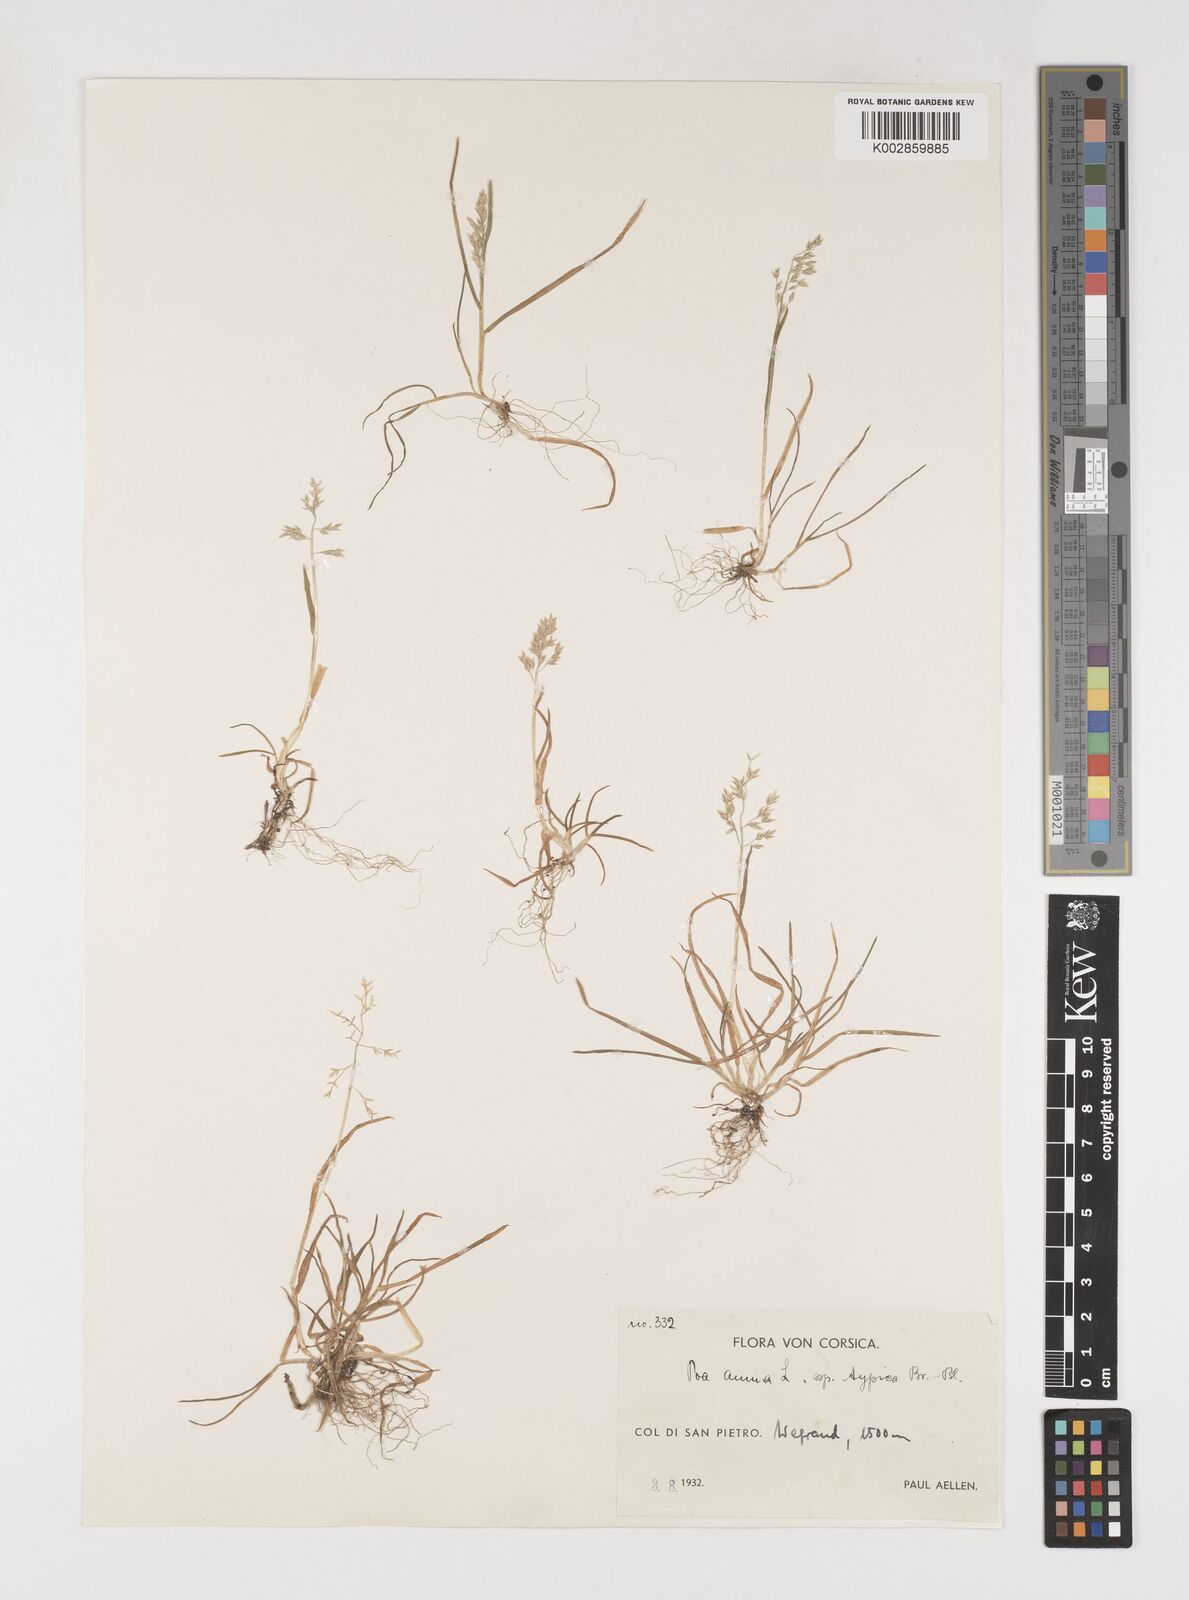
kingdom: Plantae
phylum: Tracheophyta
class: Liliopsida
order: Poales
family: Poaceae
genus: Poa
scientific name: Poa annua
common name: Annual bluegrass
